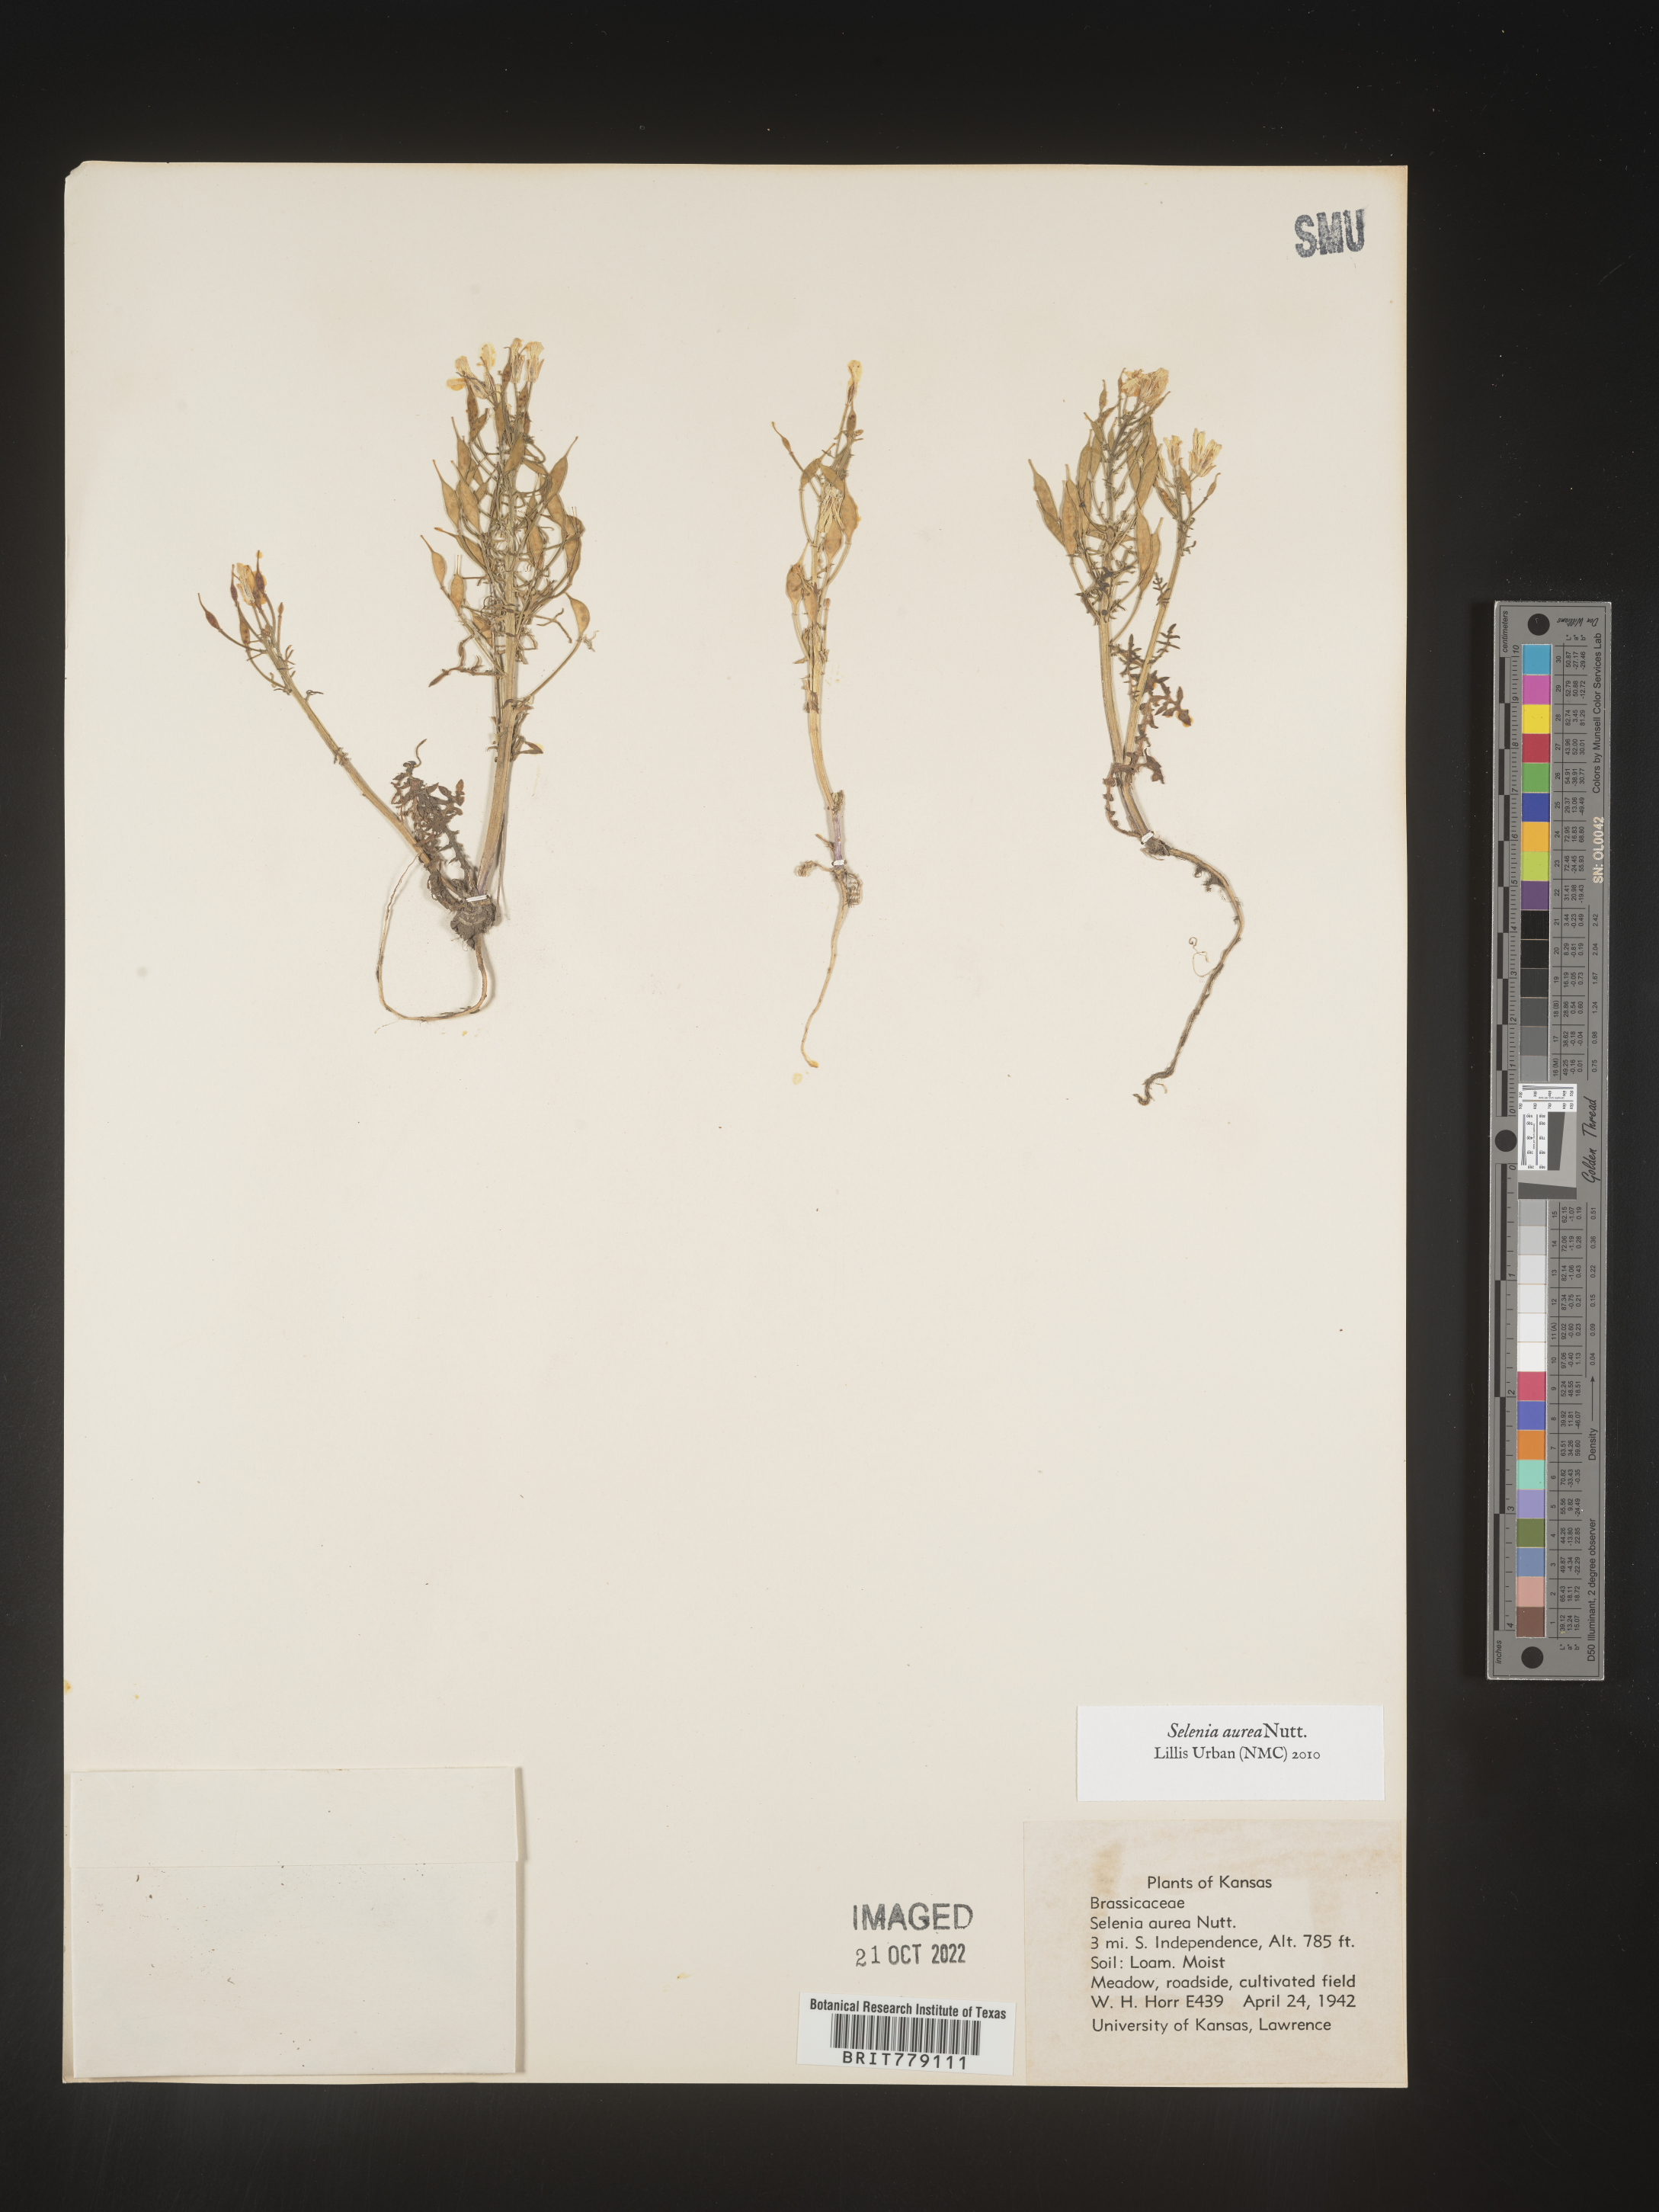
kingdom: Plantae
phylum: Tracheophyta
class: Magnoliopsida
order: Brassicales
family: Brassicaceae
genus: Selenia
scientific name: Selenia
